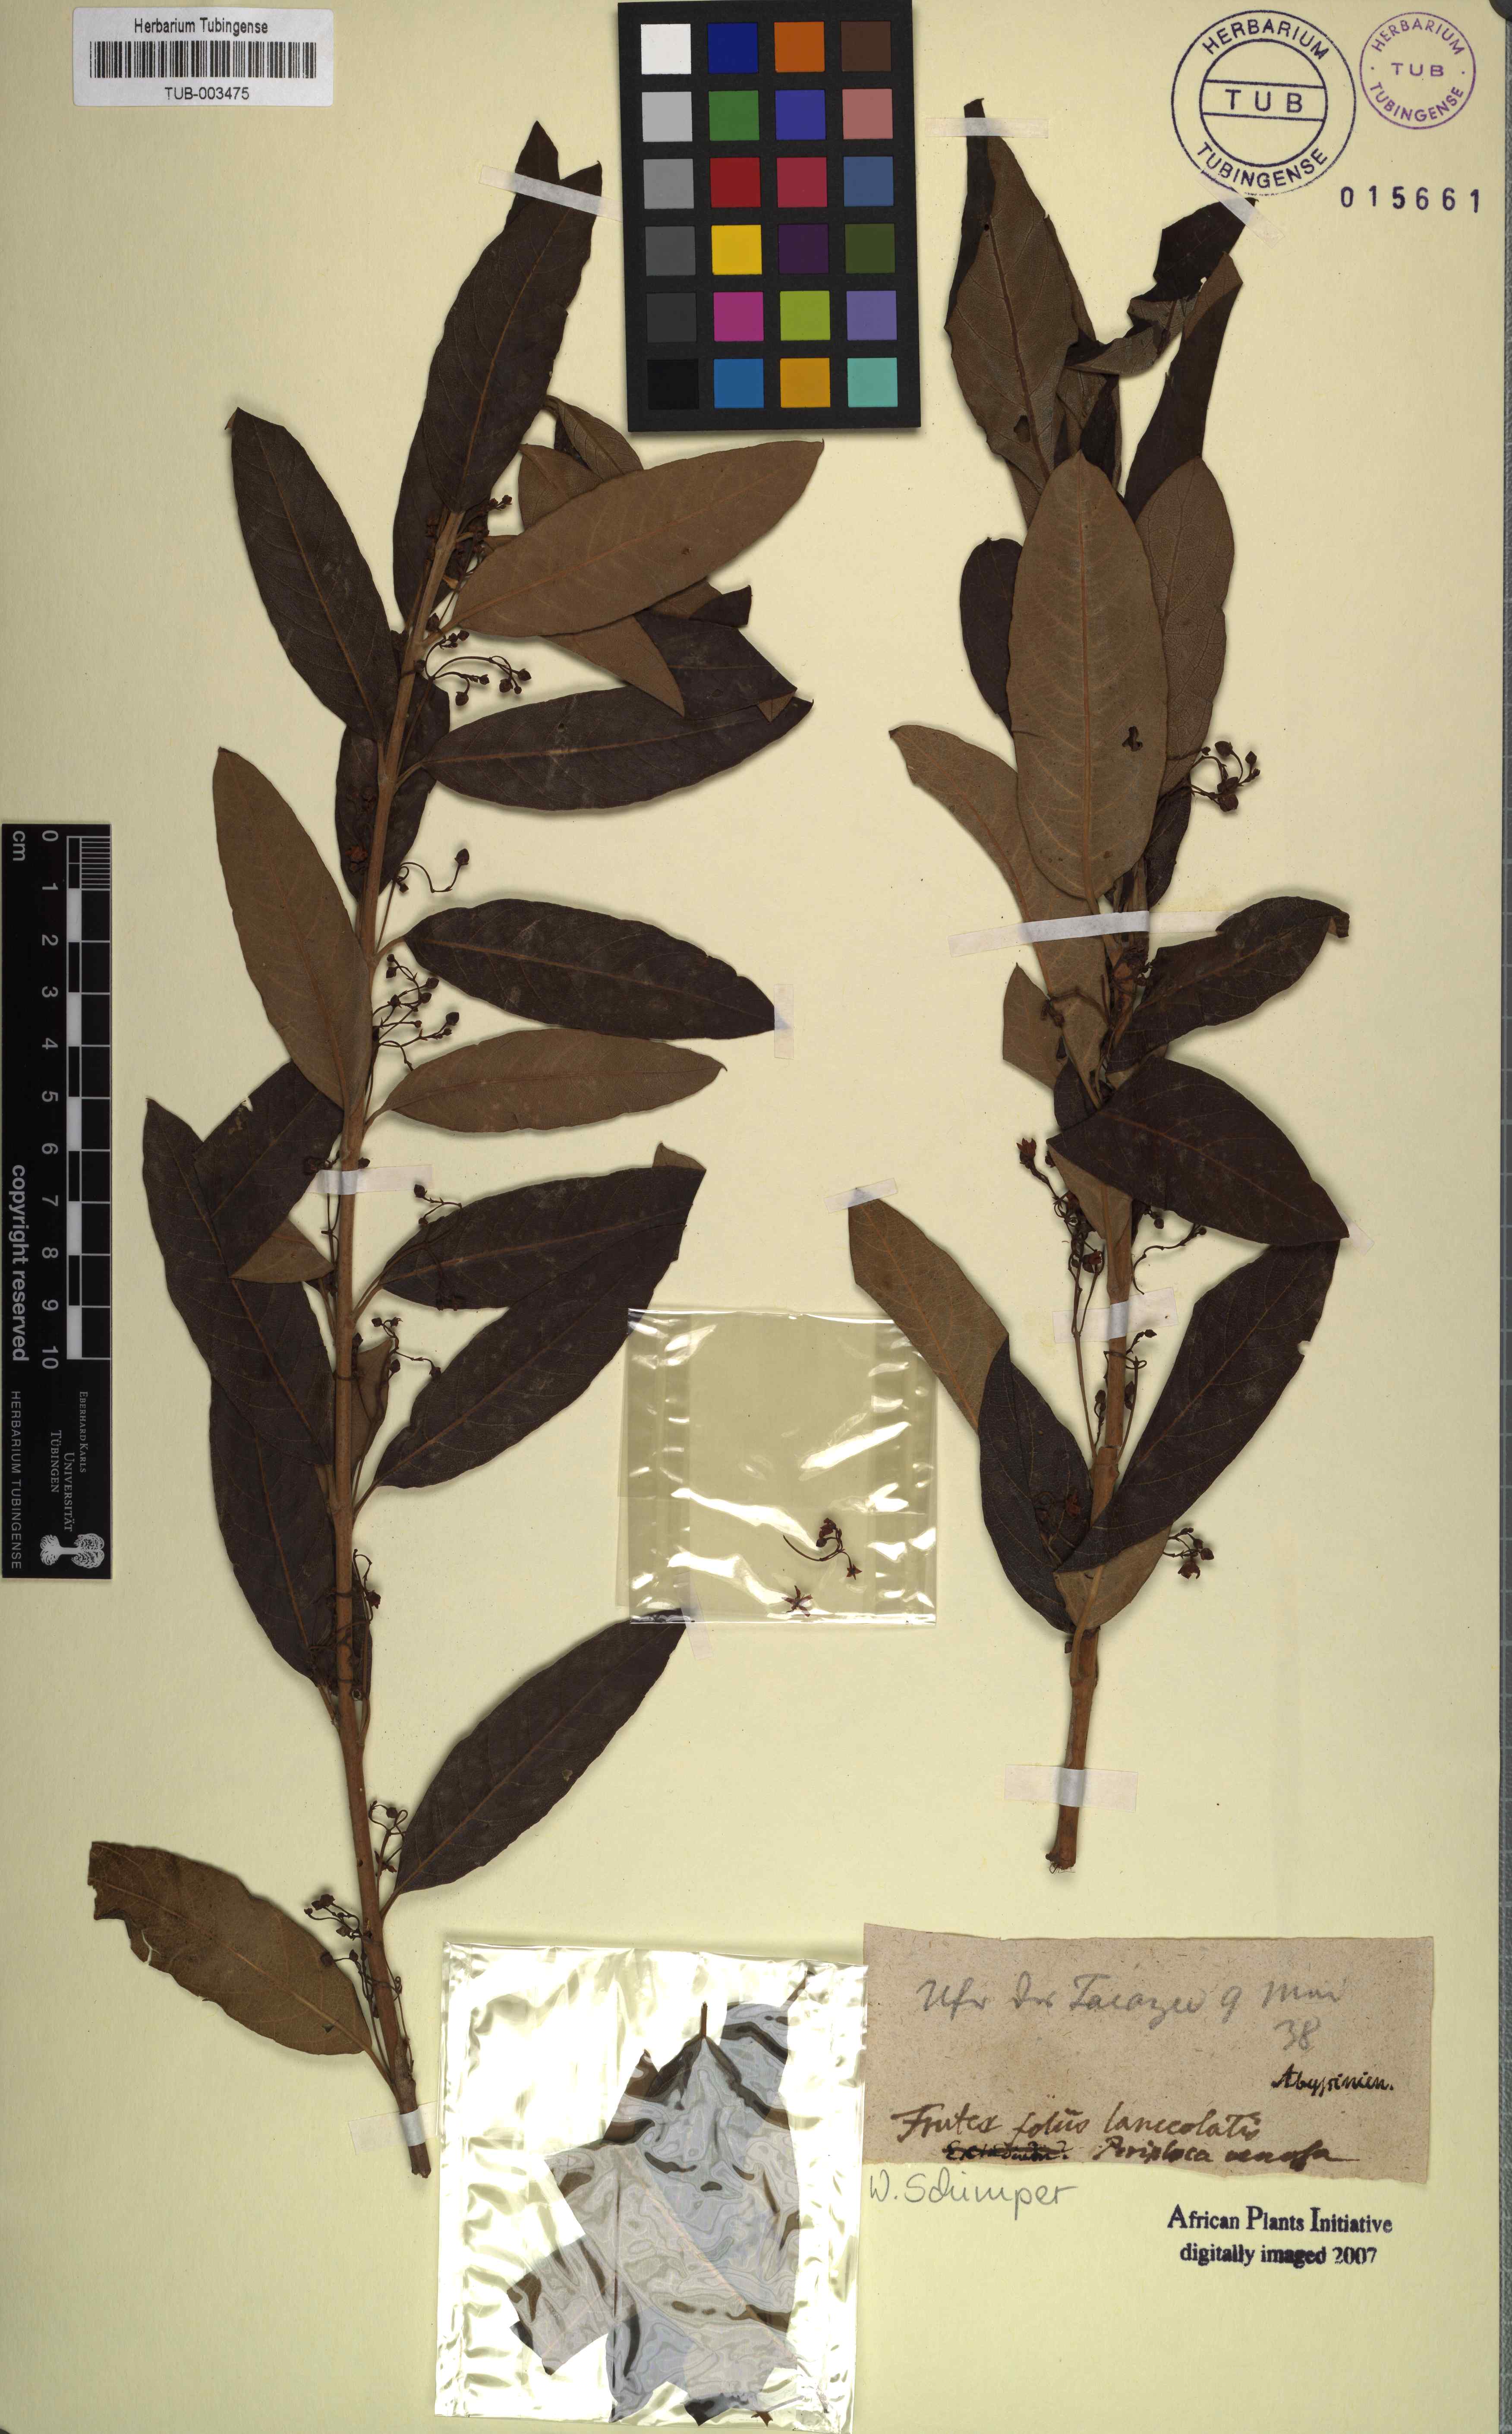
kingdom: Plantae
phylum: Tracheophyta
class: Magnoliopsida
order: Gentianales
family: Apocynaceae
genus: Tacazzea
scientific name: Tacazzea venosa
